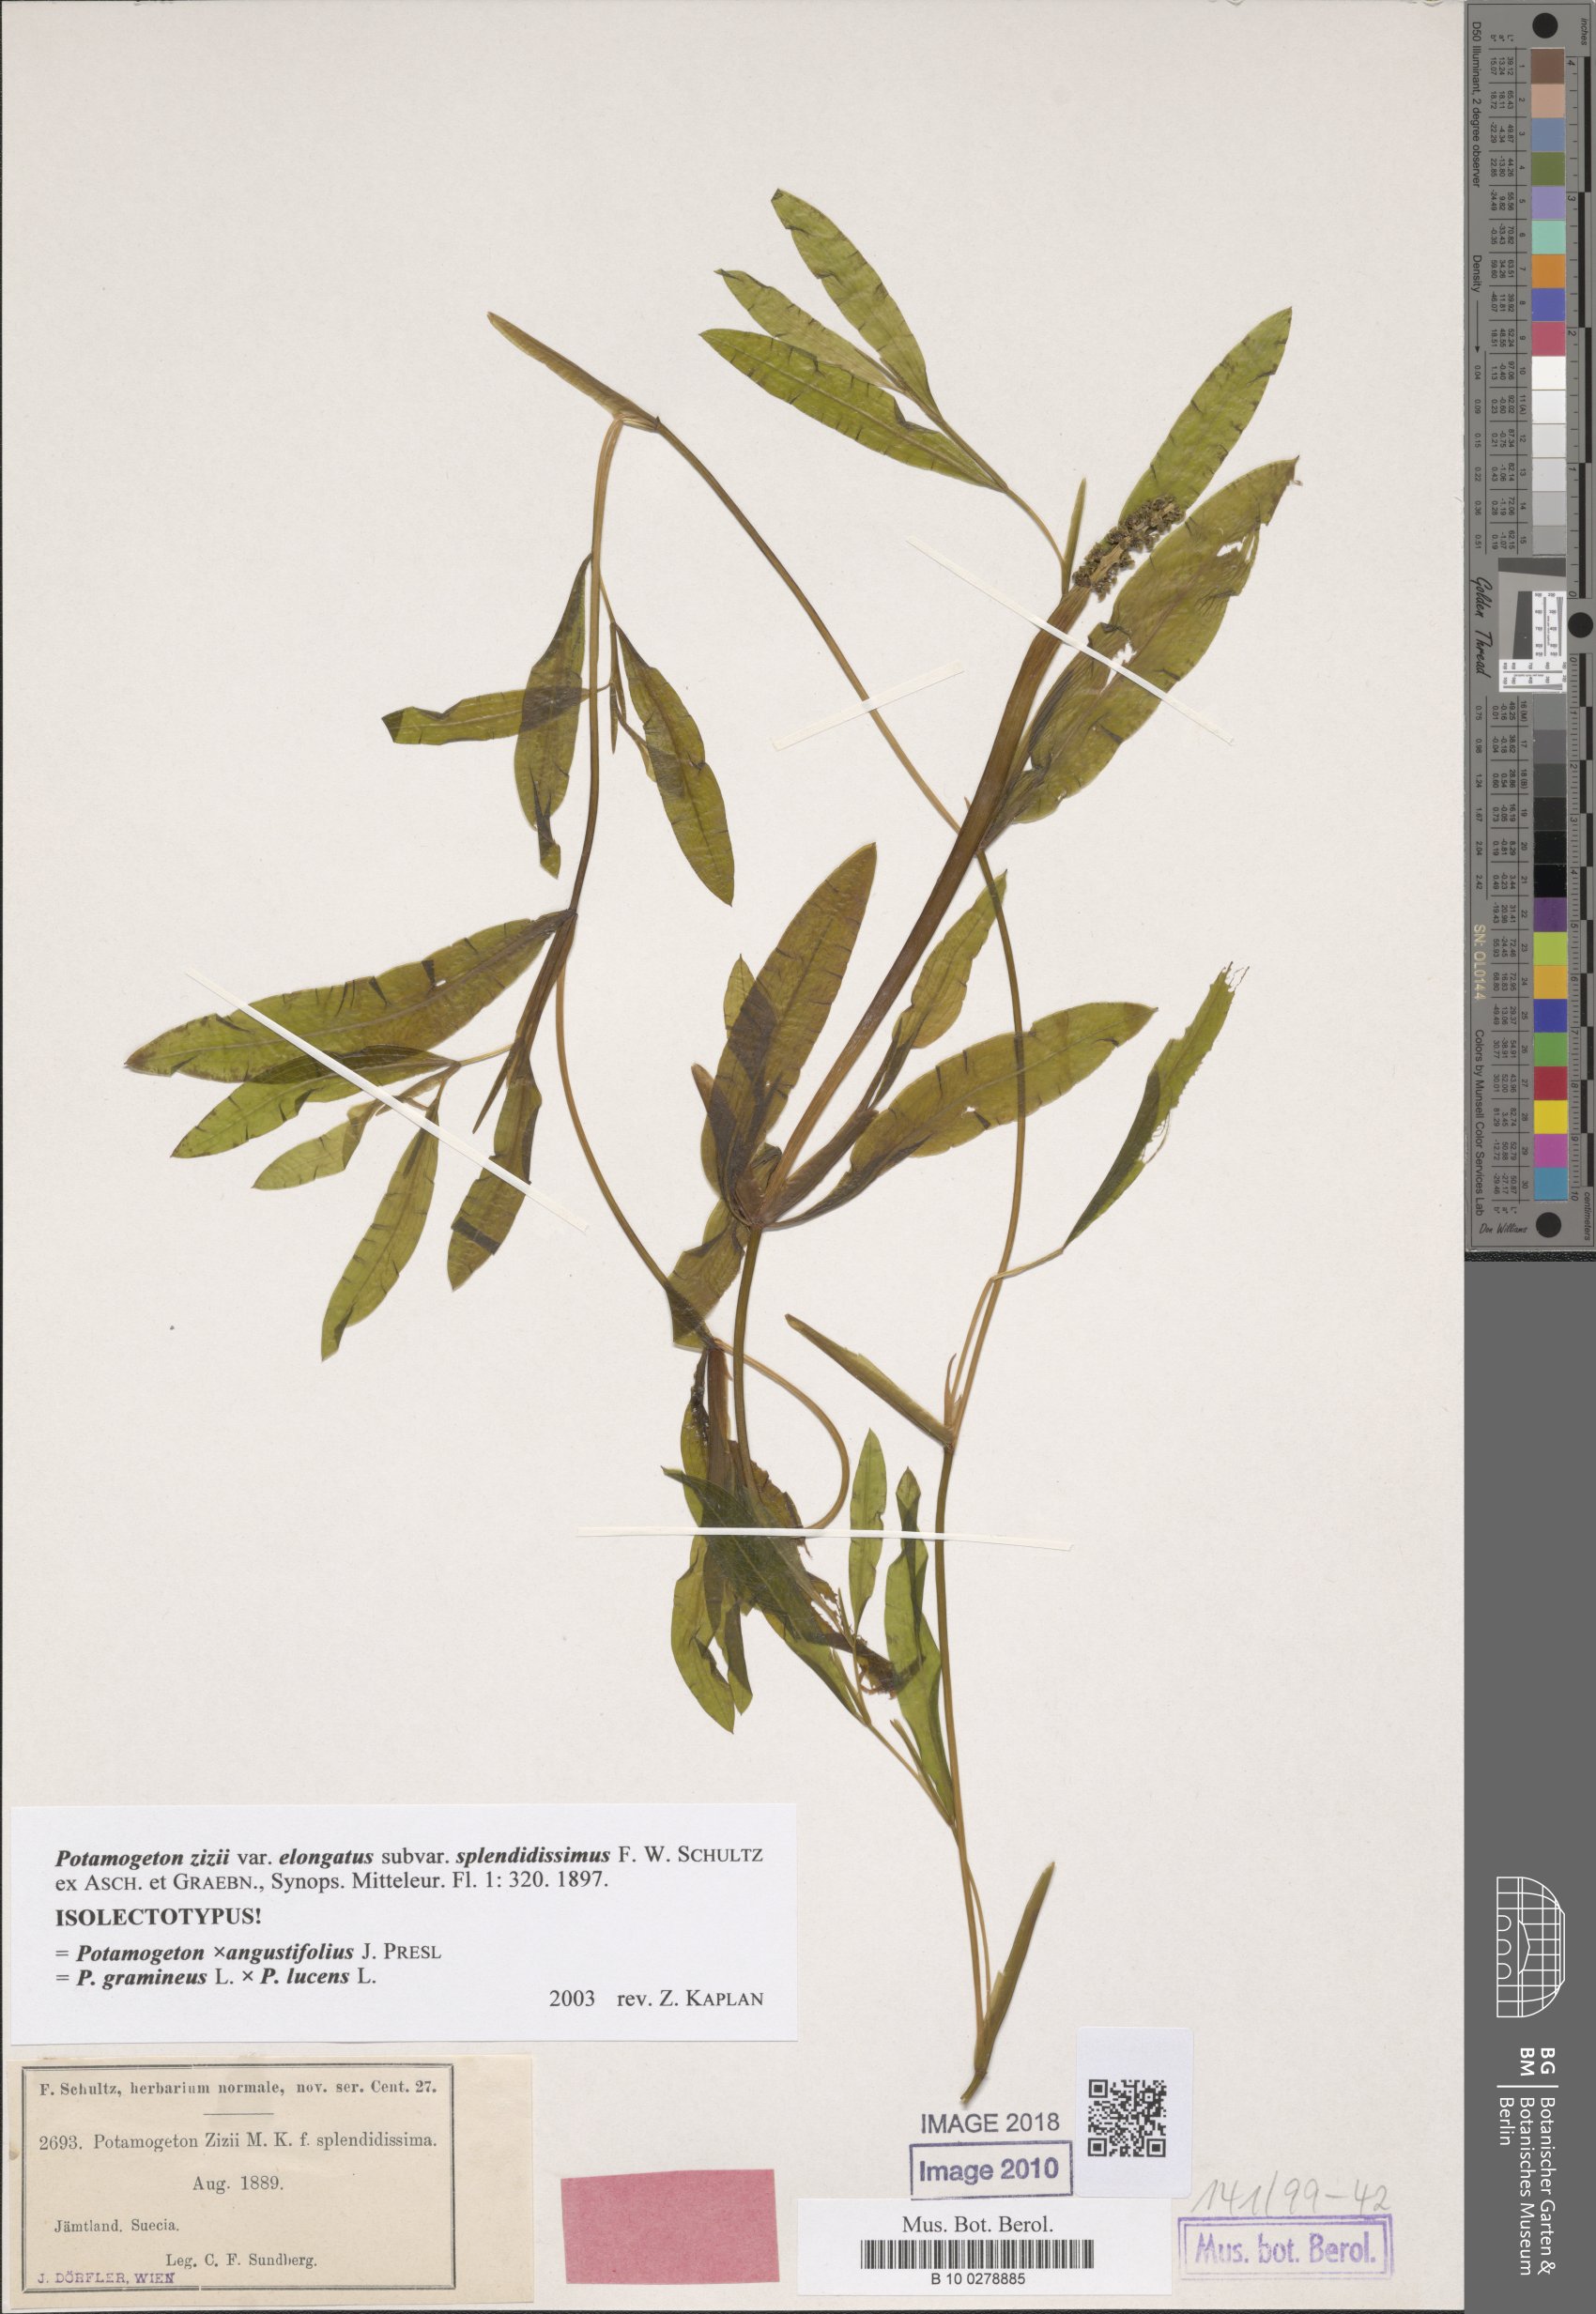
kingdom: Plantae
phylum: Tracheophyta
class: Liliopsida
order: Alismatales
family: Potamogetonaceae
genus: Potamogeton
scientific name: Potamogeton angustifolius
